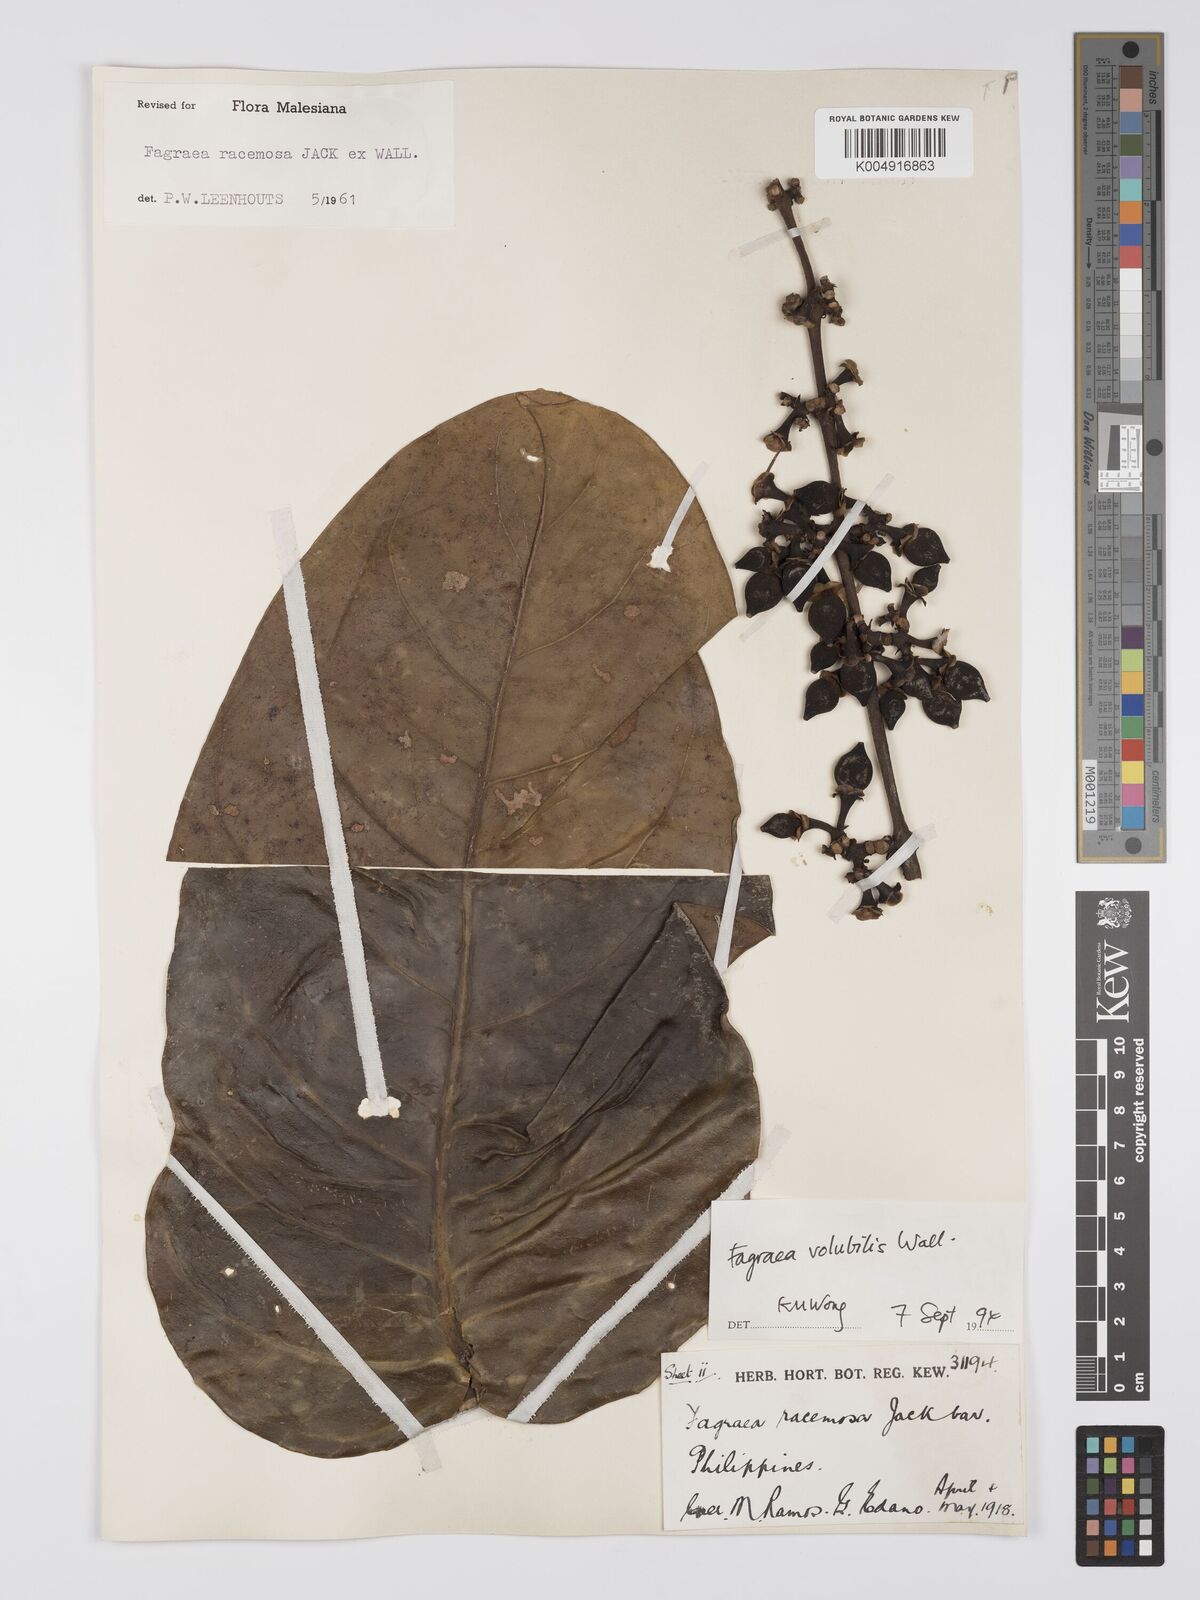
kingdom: Plantae
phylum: Tracheophyta
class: Magnoliopsida
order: Gentianales
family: Gentianaceae
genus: Utania
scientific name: Utania racemosa
